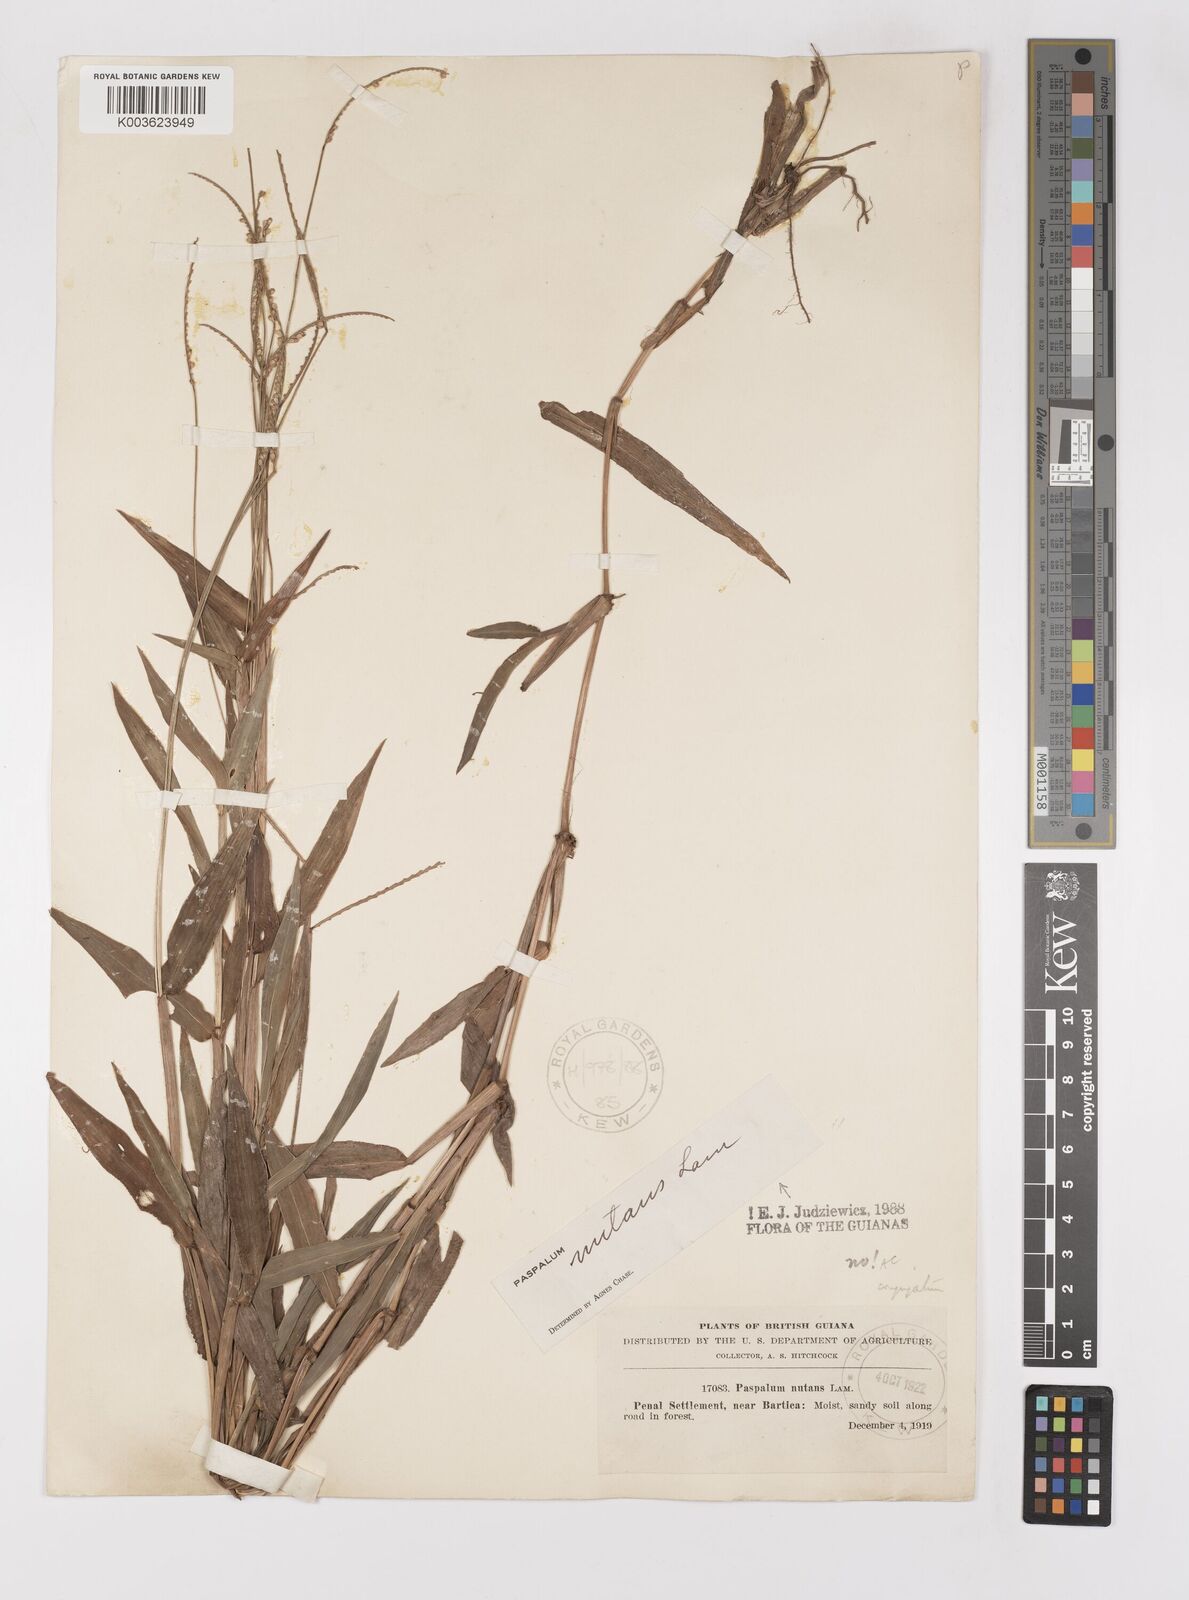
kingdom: Plantae
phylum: Tracheophyta
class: Liliopsida
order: Poales
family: Poaceae
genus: Paspalum
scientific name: Paspalum nutans
